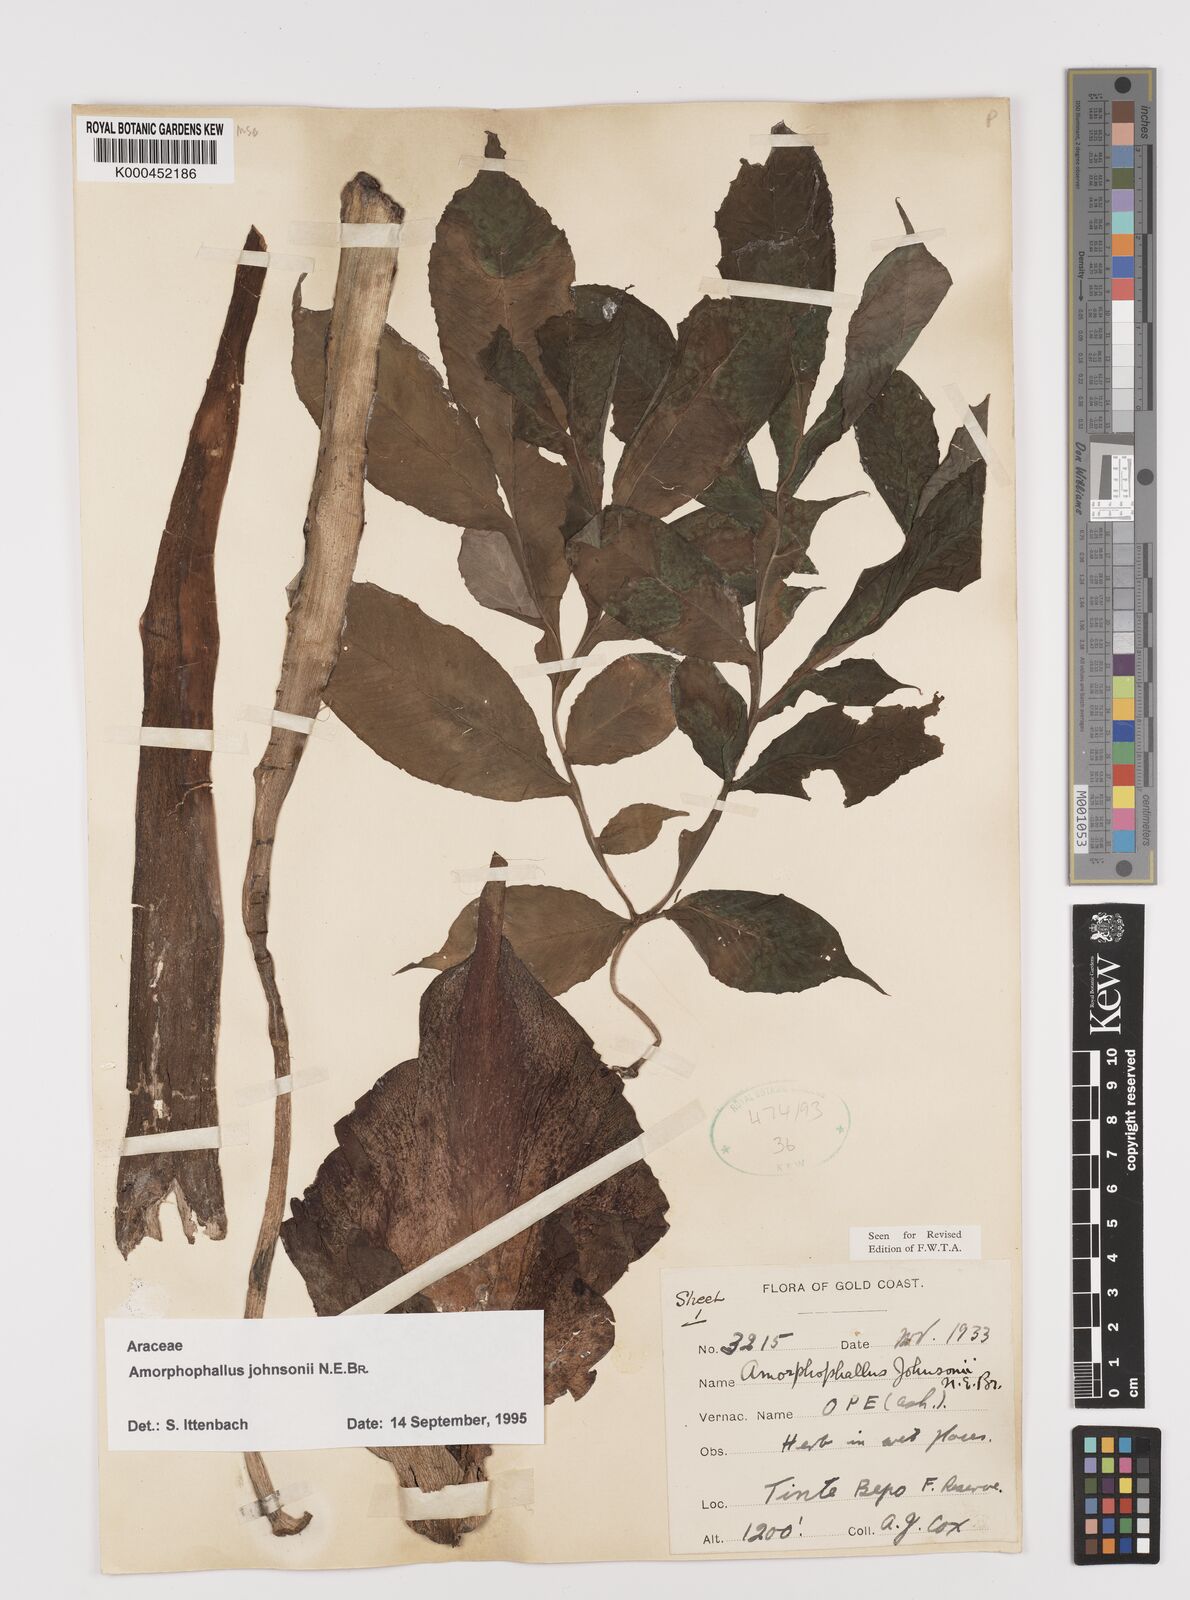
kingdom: Plantae
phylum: Tracheophyta
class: Liliopsida
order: Alismatales
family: Araceae
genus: Amorphophallus
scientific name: Amorphophallus johnsonii
